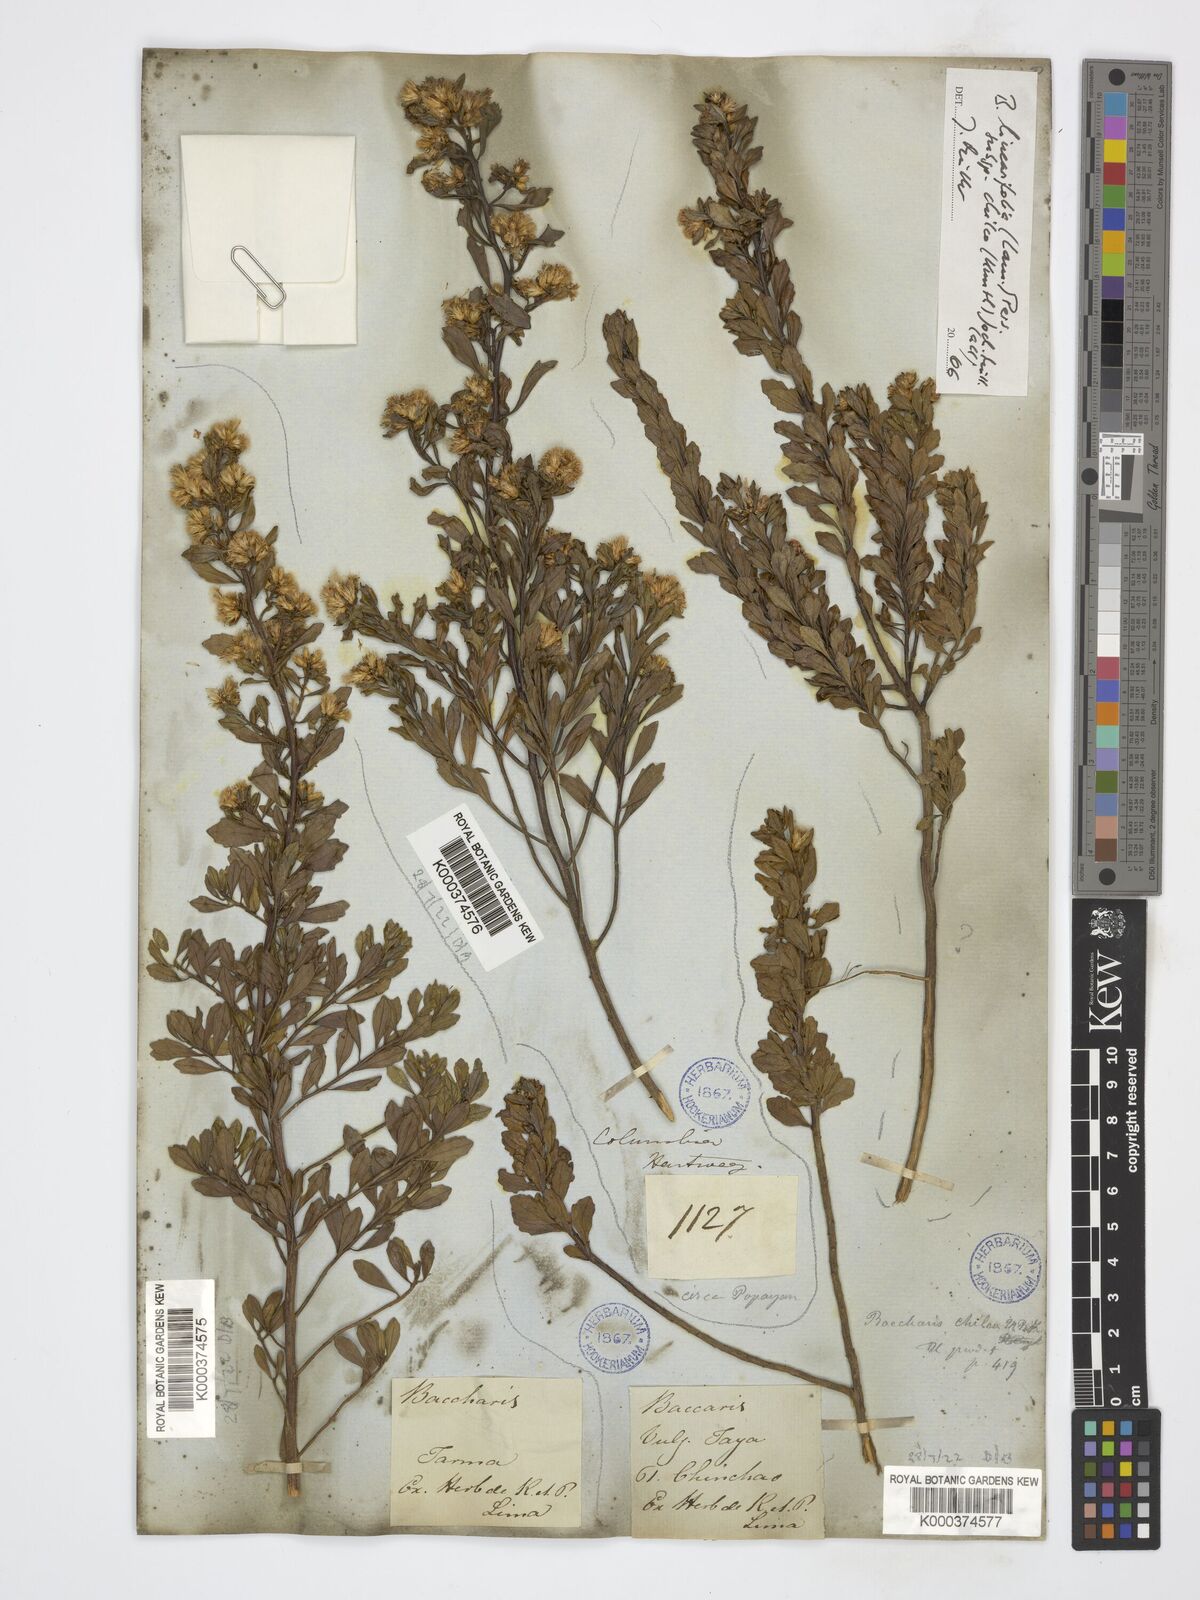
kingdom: Plantae
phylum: Tracheophyta
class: Magnoliopsida
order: Asterales
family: Asteraceae
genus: Baccharis
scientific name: Baccharis linearifolia
